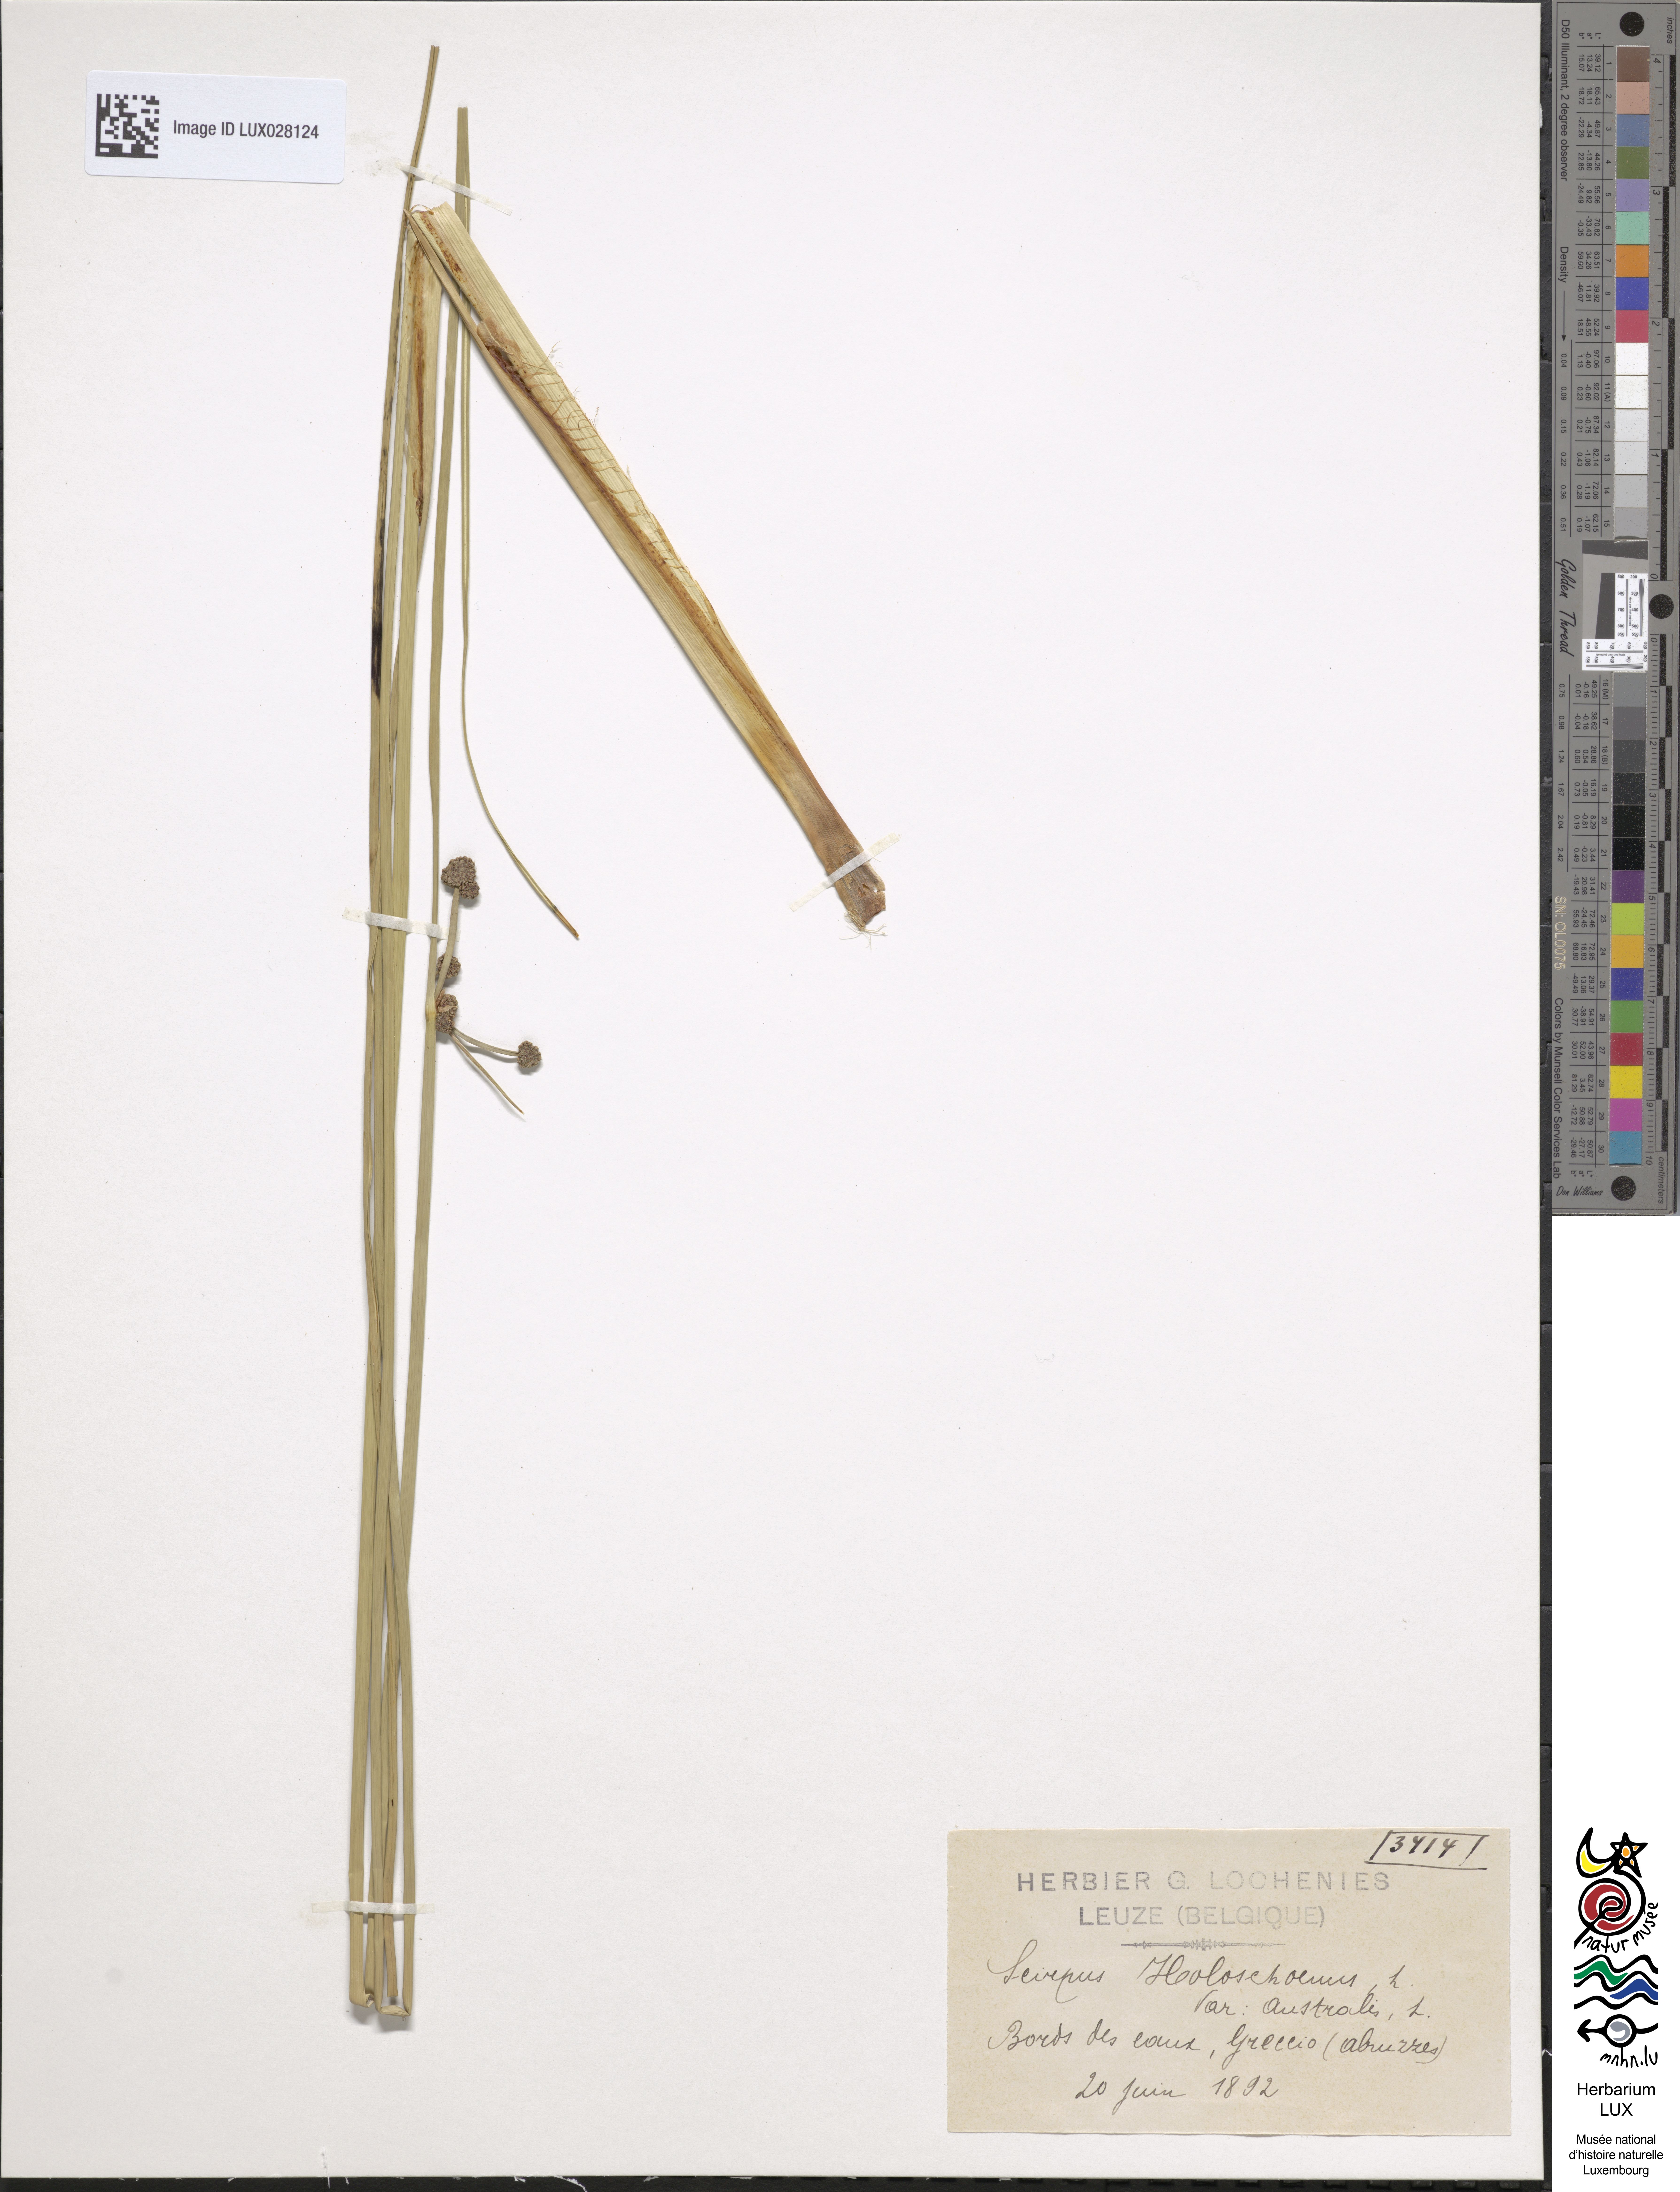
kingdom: Plantae
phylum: Tracheophyta
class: Liliopsida
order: Poales
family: Cyperaceae
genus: Scirpoides
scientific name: Scirpoides holoschoenus
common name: Round-headed club-rush
